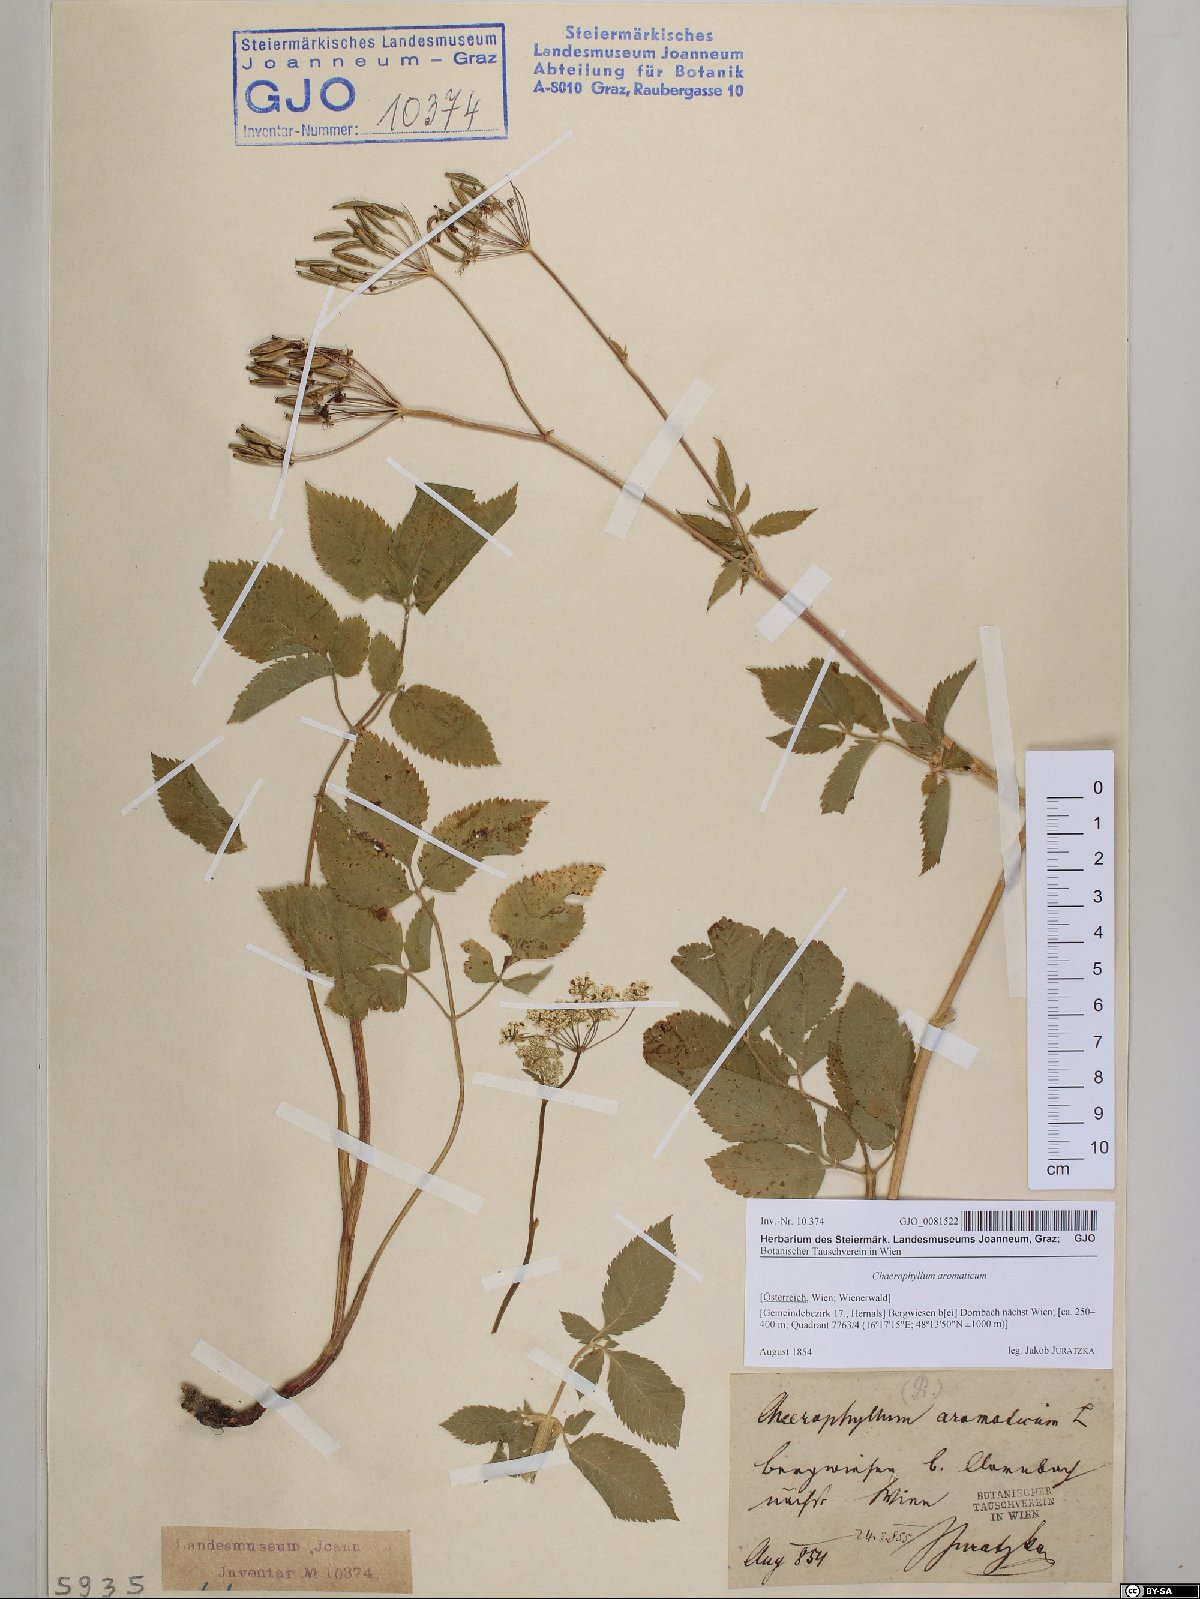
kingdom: Plantae
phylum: Tracheophyta
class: Magnoliopsida
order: Apiales
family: Apiaceae
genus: Chaerophyllum
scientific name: Chaerophyllum aromaticum
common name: Broadleaf chervil
